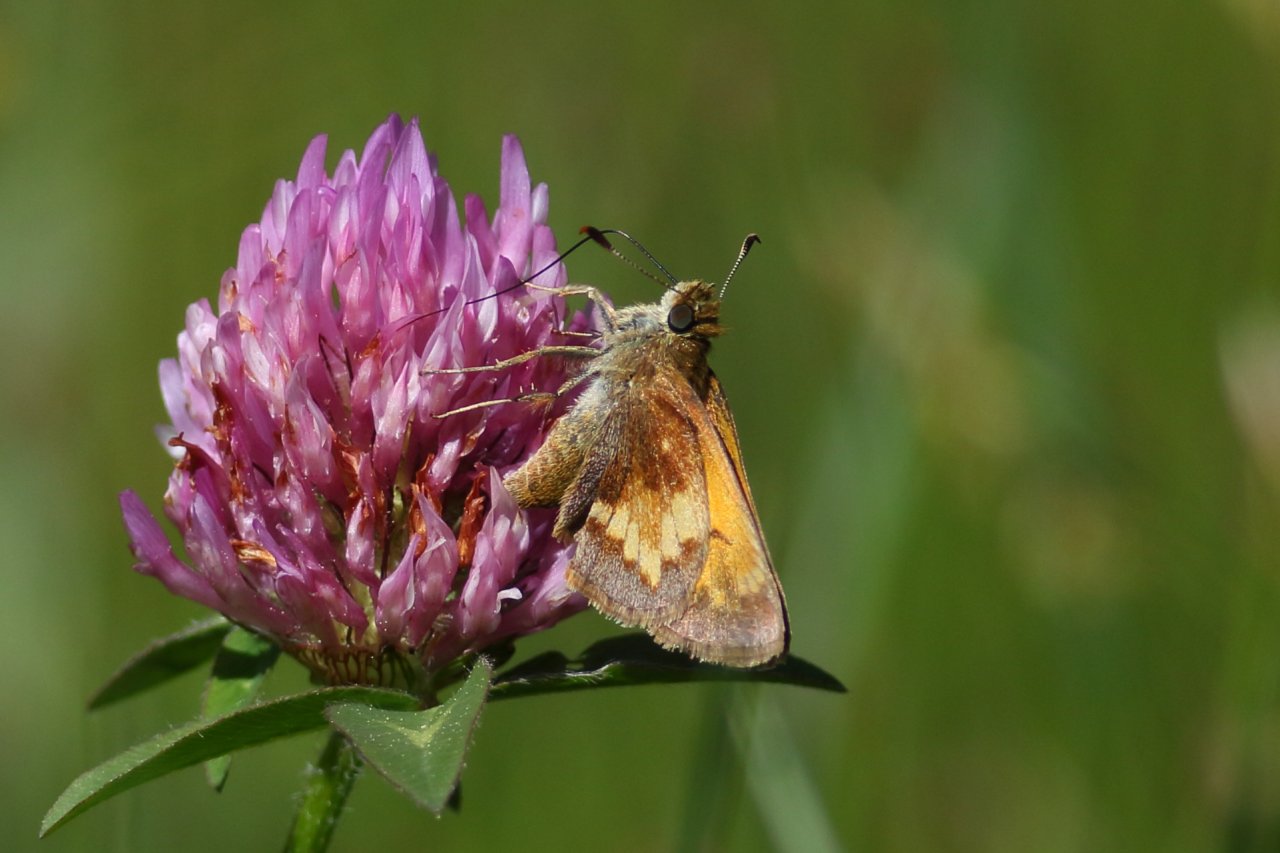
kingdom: Animalia
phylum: Arthropoda
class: Insecta
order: Lepidoptera
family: Hesperiidae
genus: Lon
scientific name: Lon hobomok
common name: Hobomok Skipper
